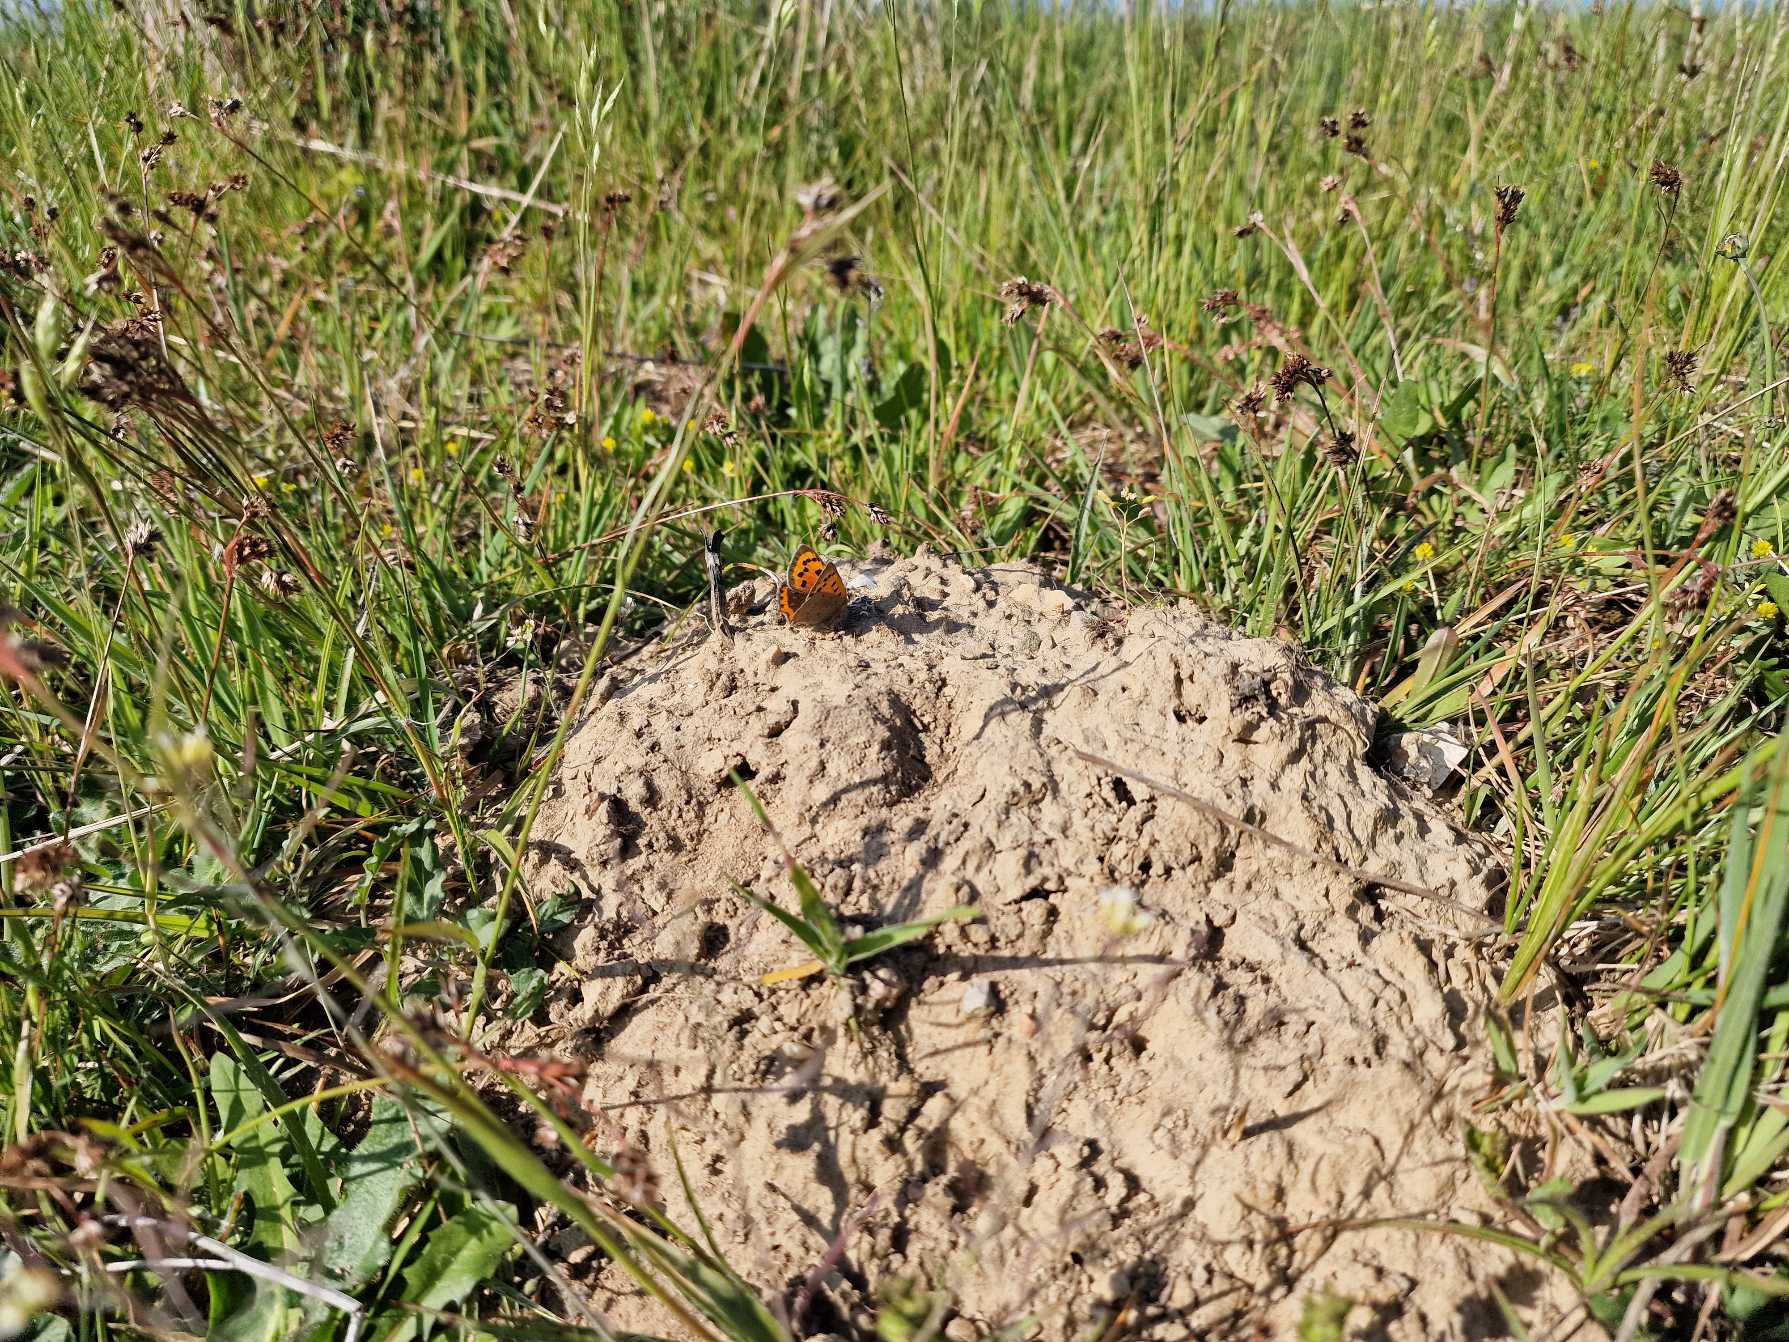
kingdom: Animalia
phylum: Arthropoda
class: Insecta
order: Lepidoptera
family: Lycaenidae
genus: Lycaena
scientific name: Lycaena phlaeas
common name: Lille ildfugl
